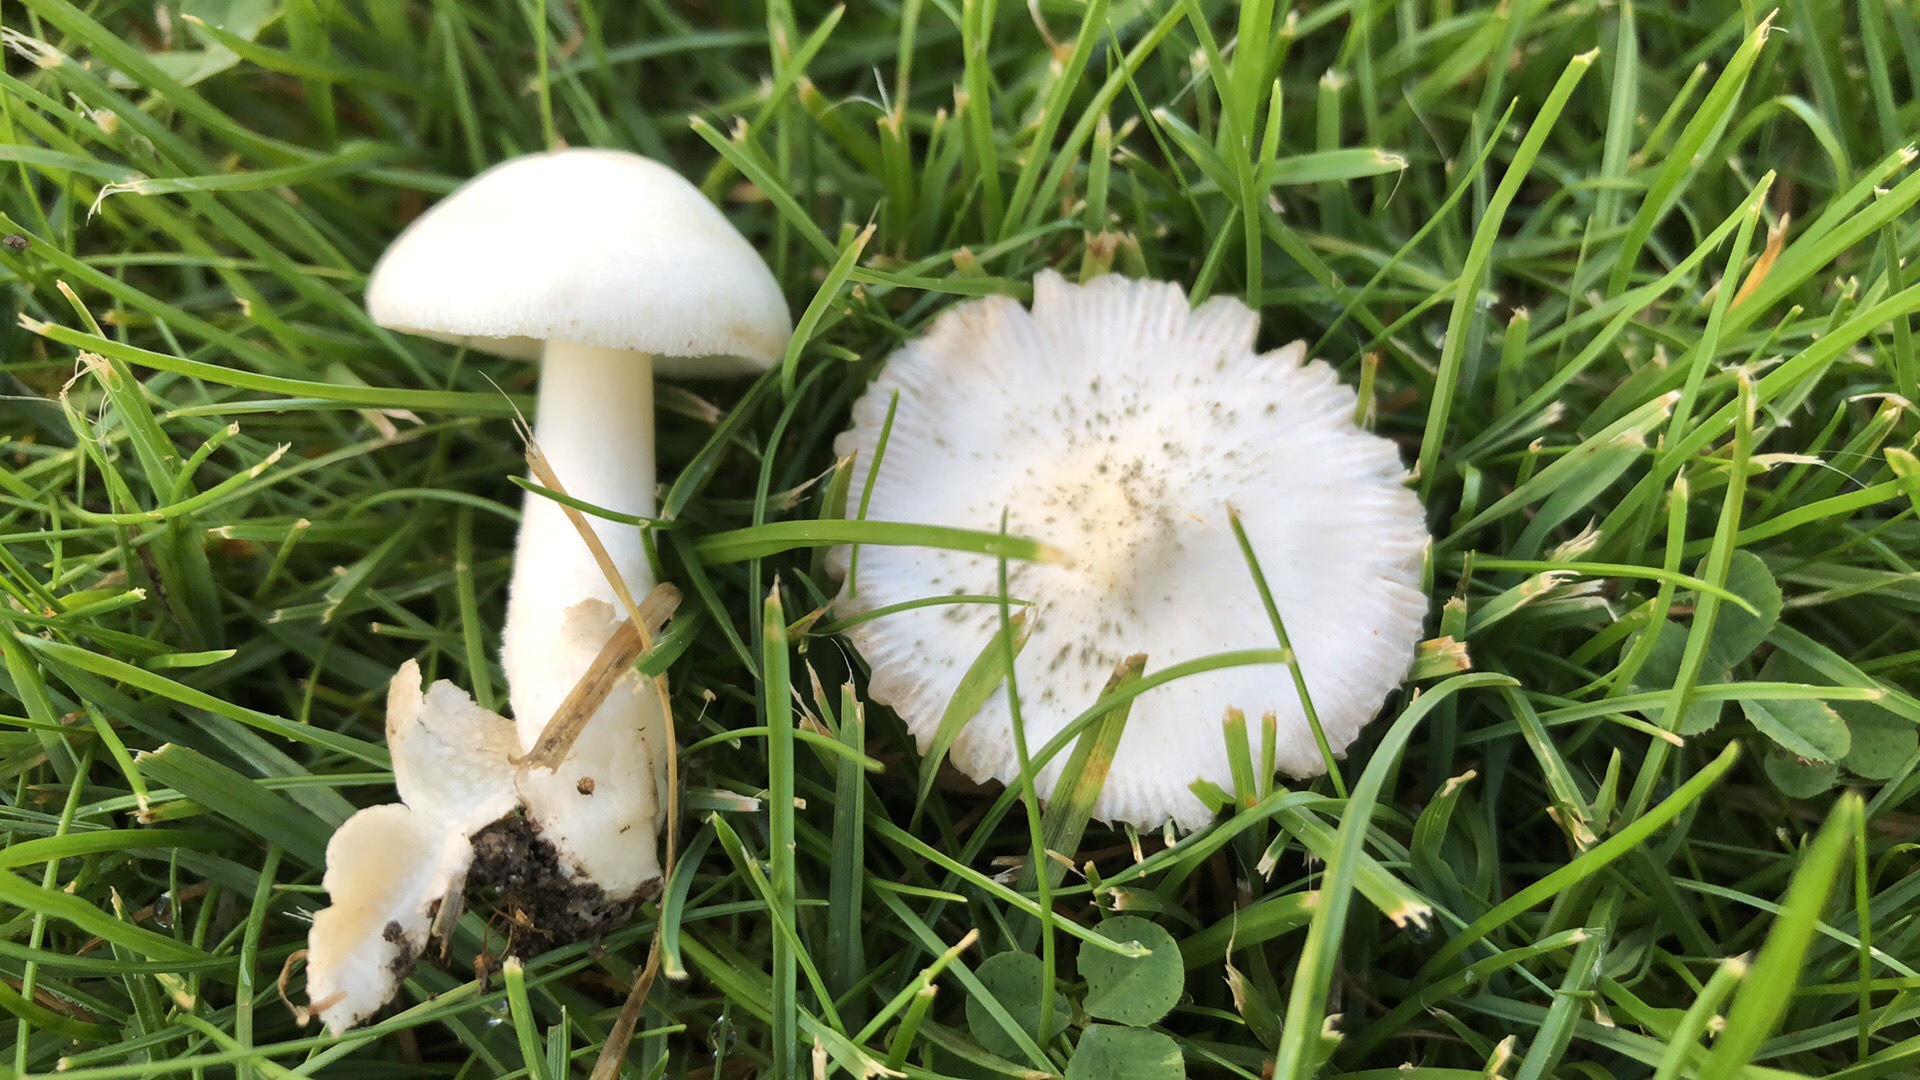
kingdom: Fungi
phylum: Basidiomycota
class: Agaricomycetes
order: Agaricales
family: Pluteaceae
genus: Volvariella
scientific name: Volvariella pusilla
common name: liden posesvamp
